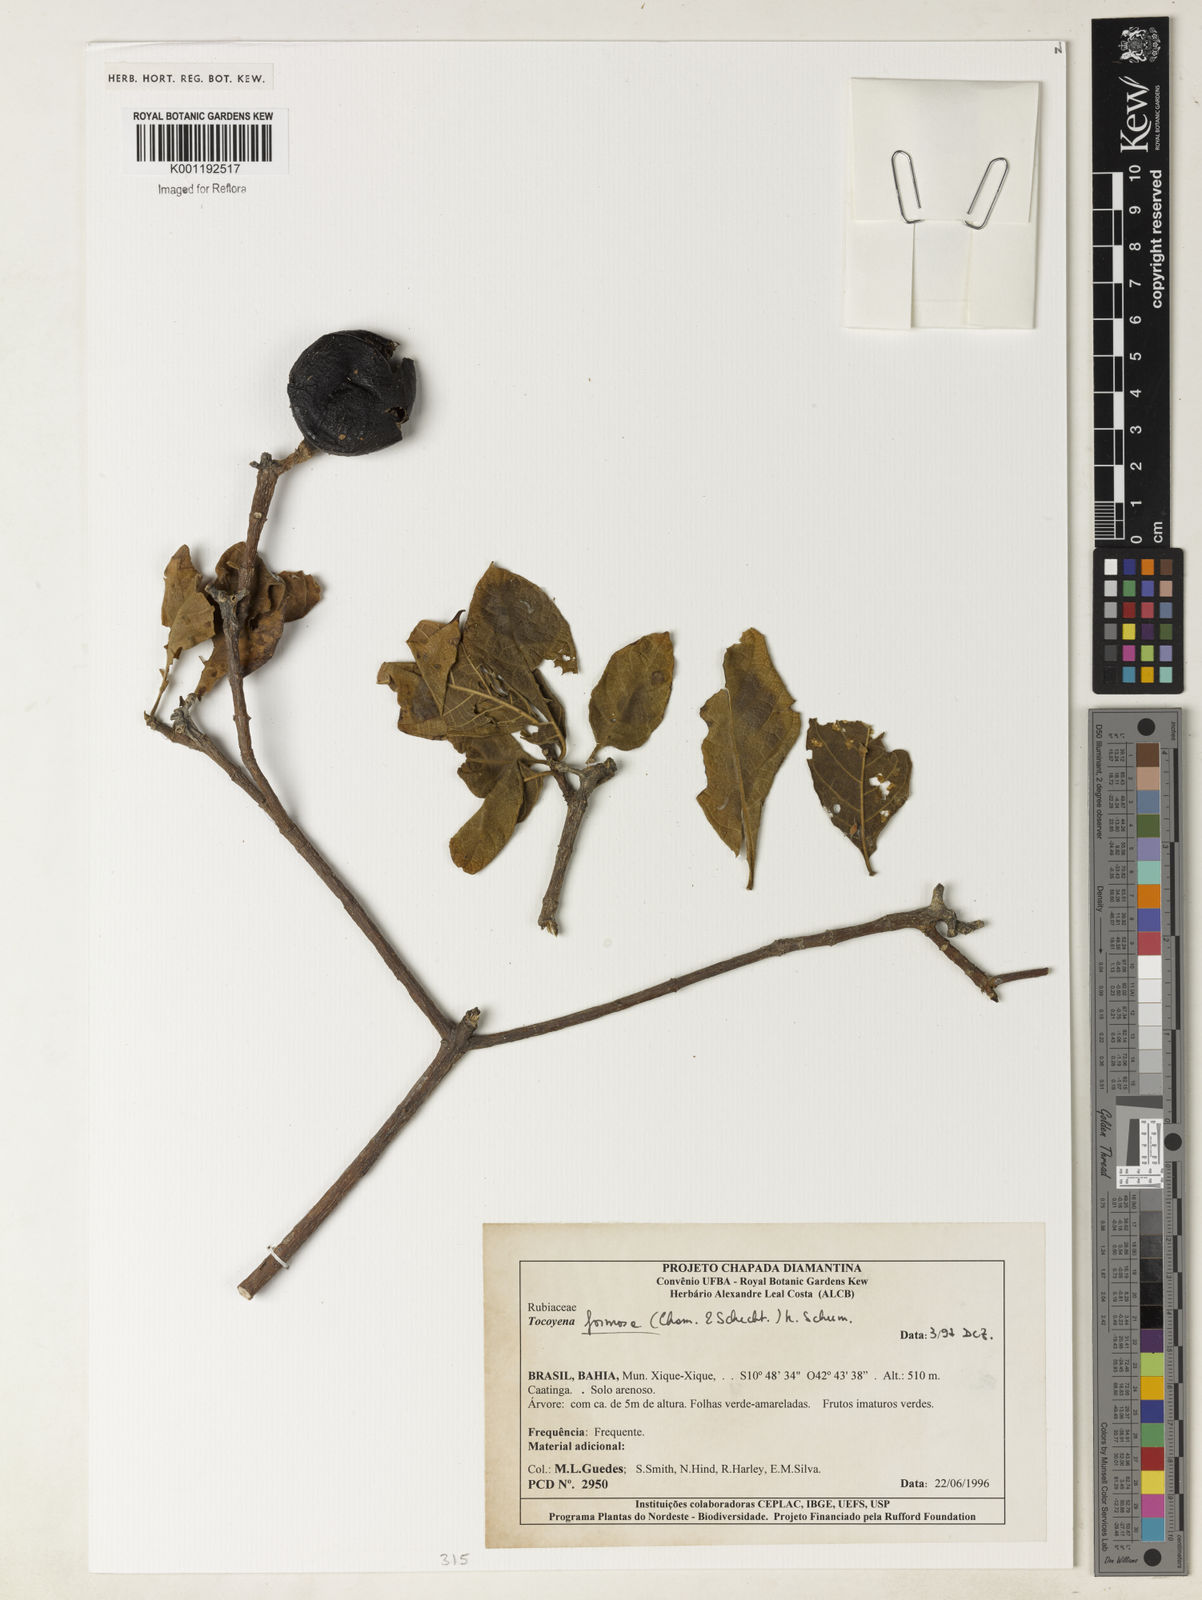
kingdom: Plantae
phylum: Tracheophyta
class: Magnoliopsida
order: Gentianales
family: Rubiaceae
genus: Tocoyena
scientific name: Tocoyena formosa
